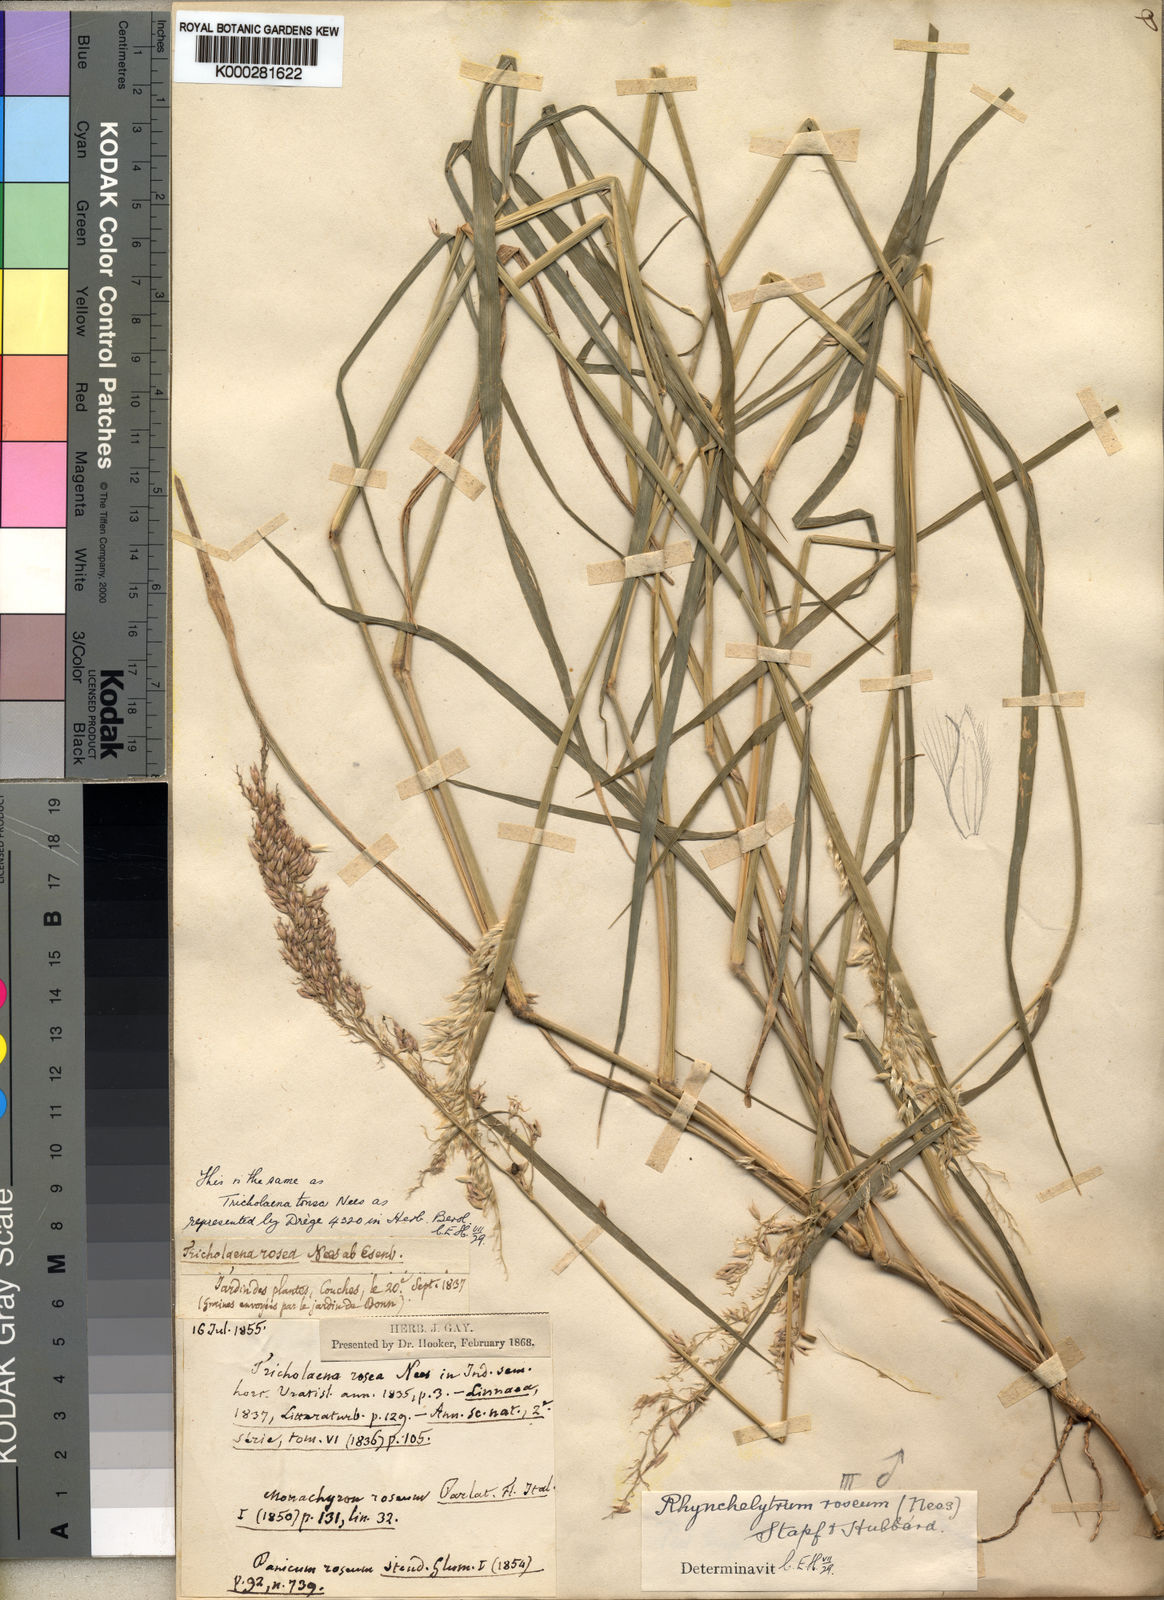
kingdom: Plantae
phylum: Tracheophyta
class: Liliopsida
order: Poales
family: Poaceae
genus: Melinis
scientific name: Melinis repens
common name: Rose natal grass
